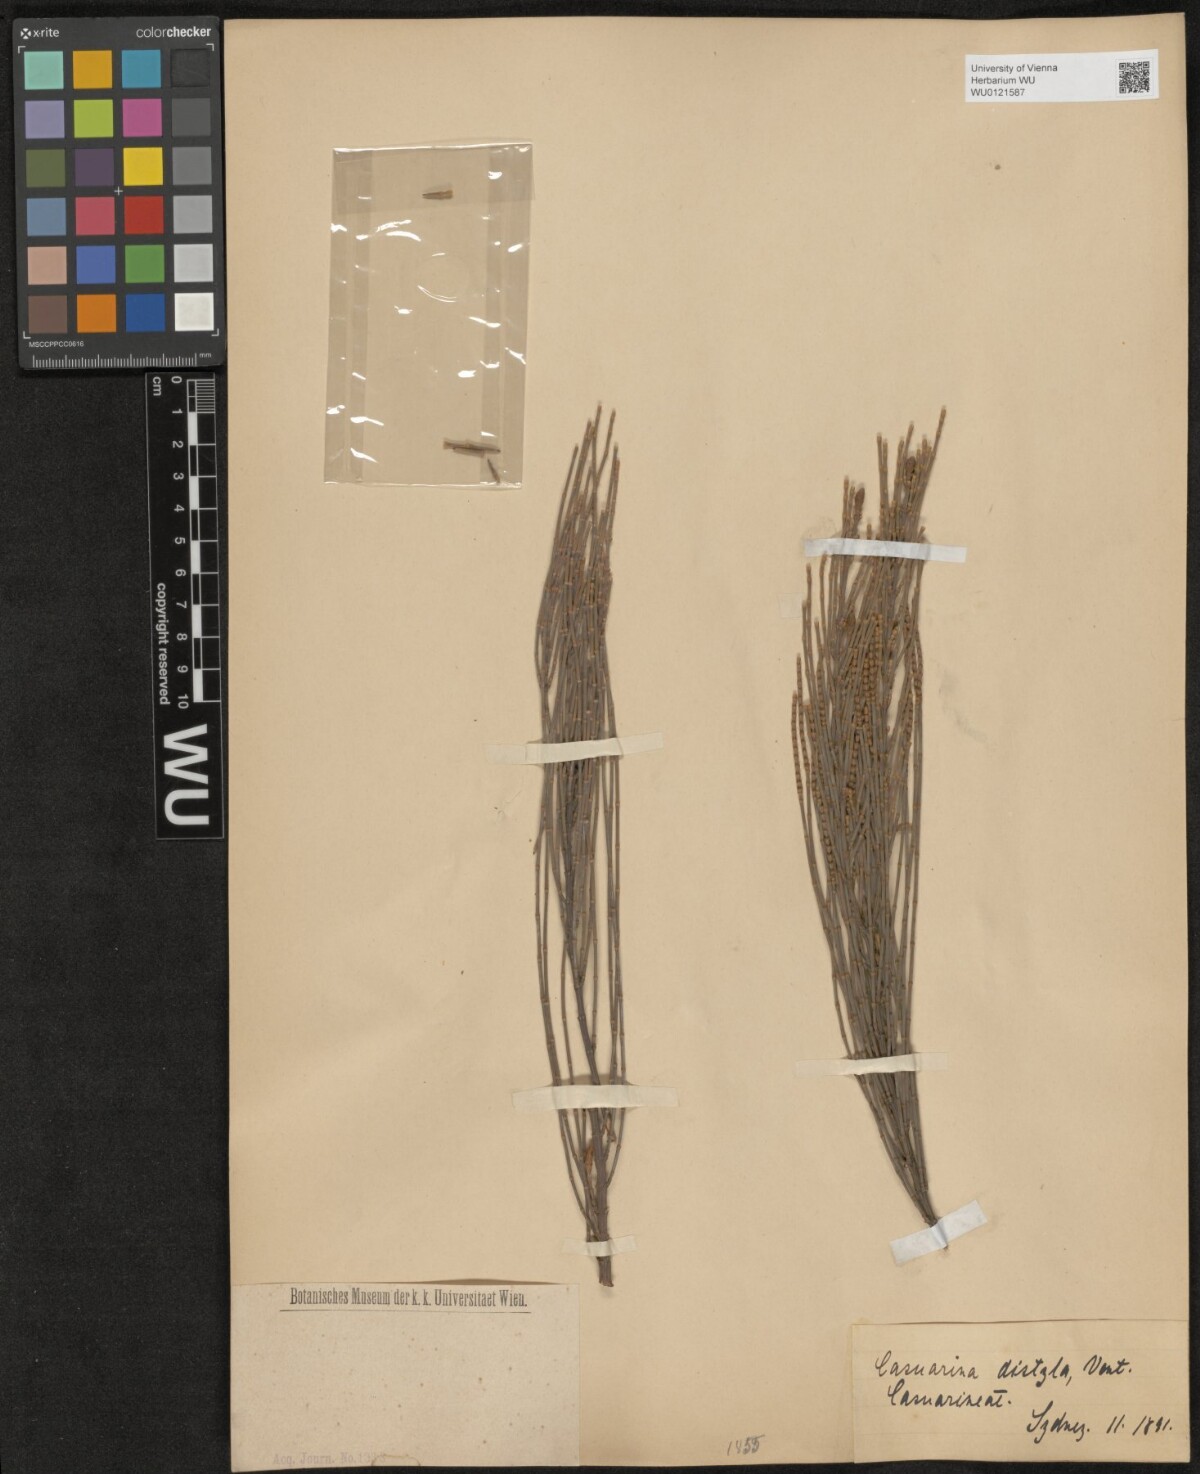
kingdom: Plantae
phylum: Tracheophyta
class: Magnoliopsida
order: Fagales
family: Casuarinaceae
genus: Allocasuarina
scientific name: Allocasuarina distyla
